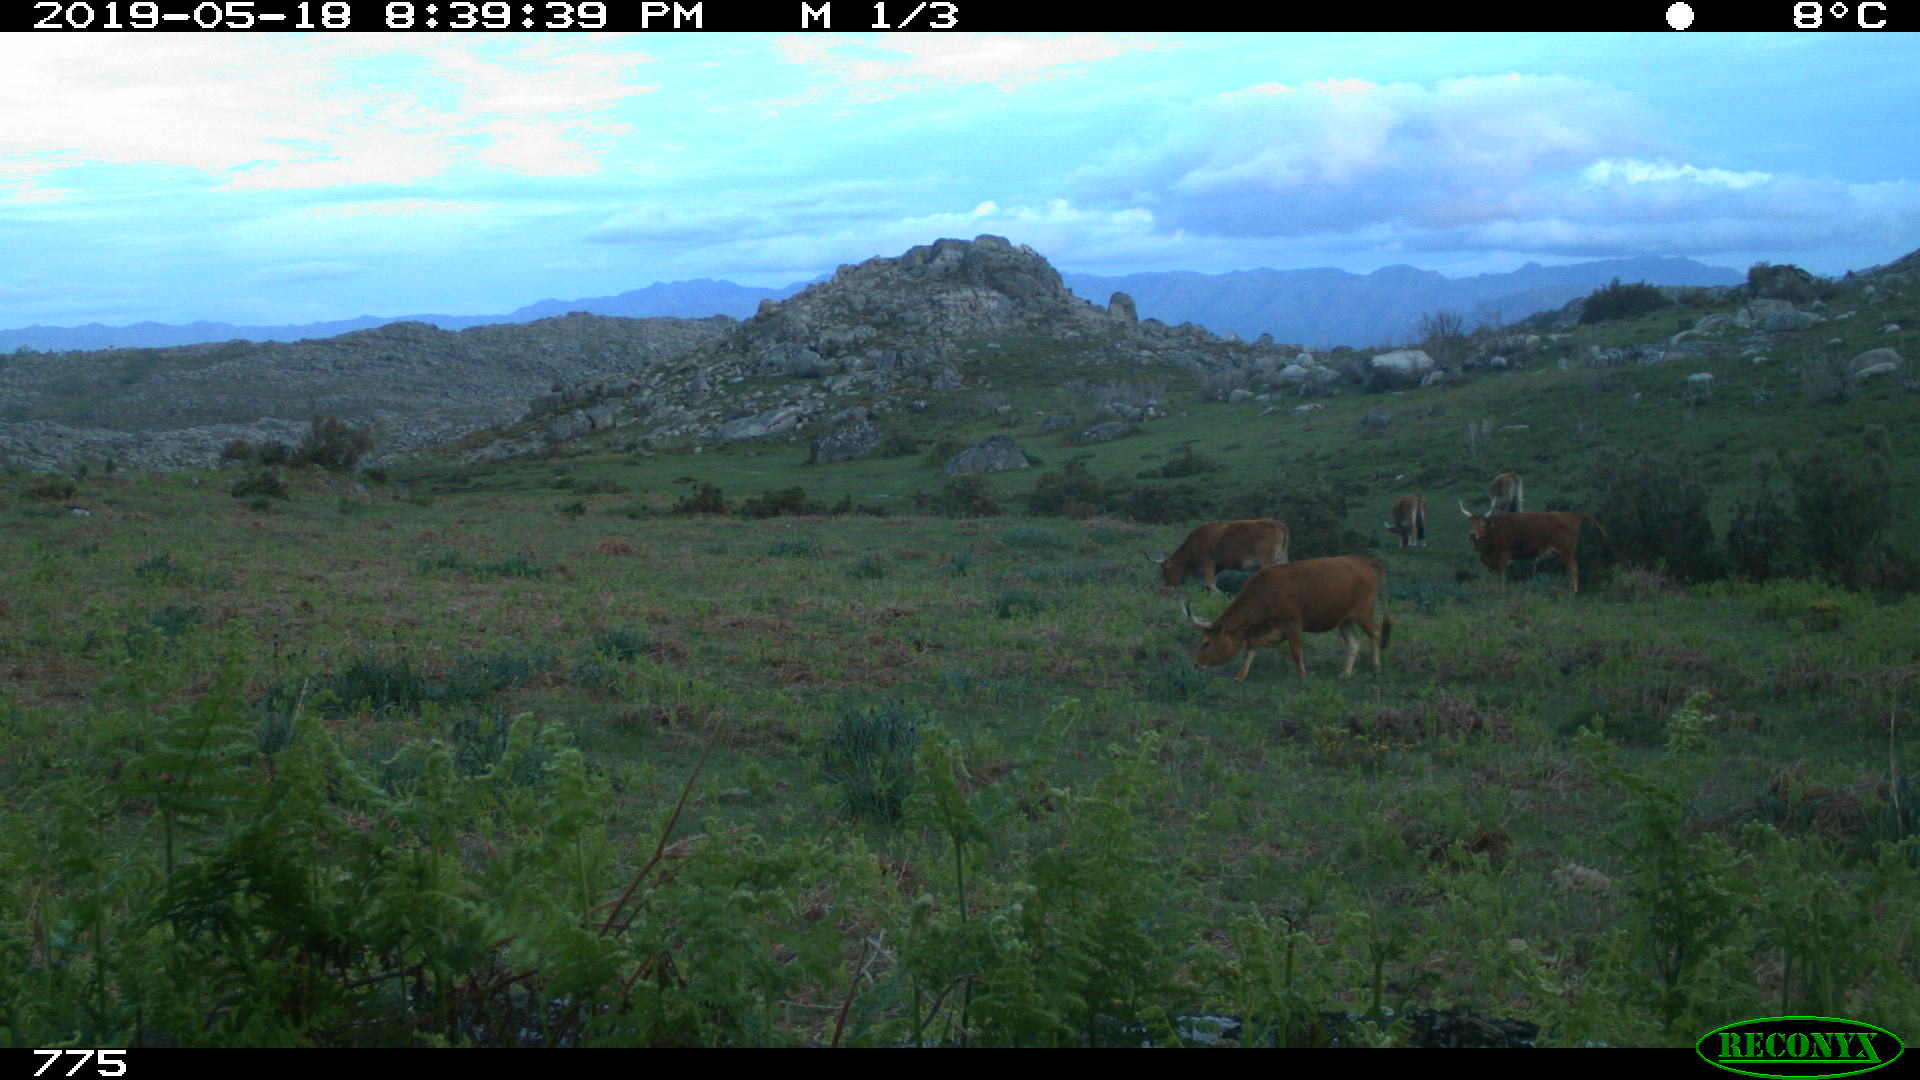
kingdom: Animalia
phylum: Chordata
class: Mammalia
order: Artiodactyla
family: Bovidae
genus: Bos
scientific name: Bos taurus
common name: Domesticated cattle
